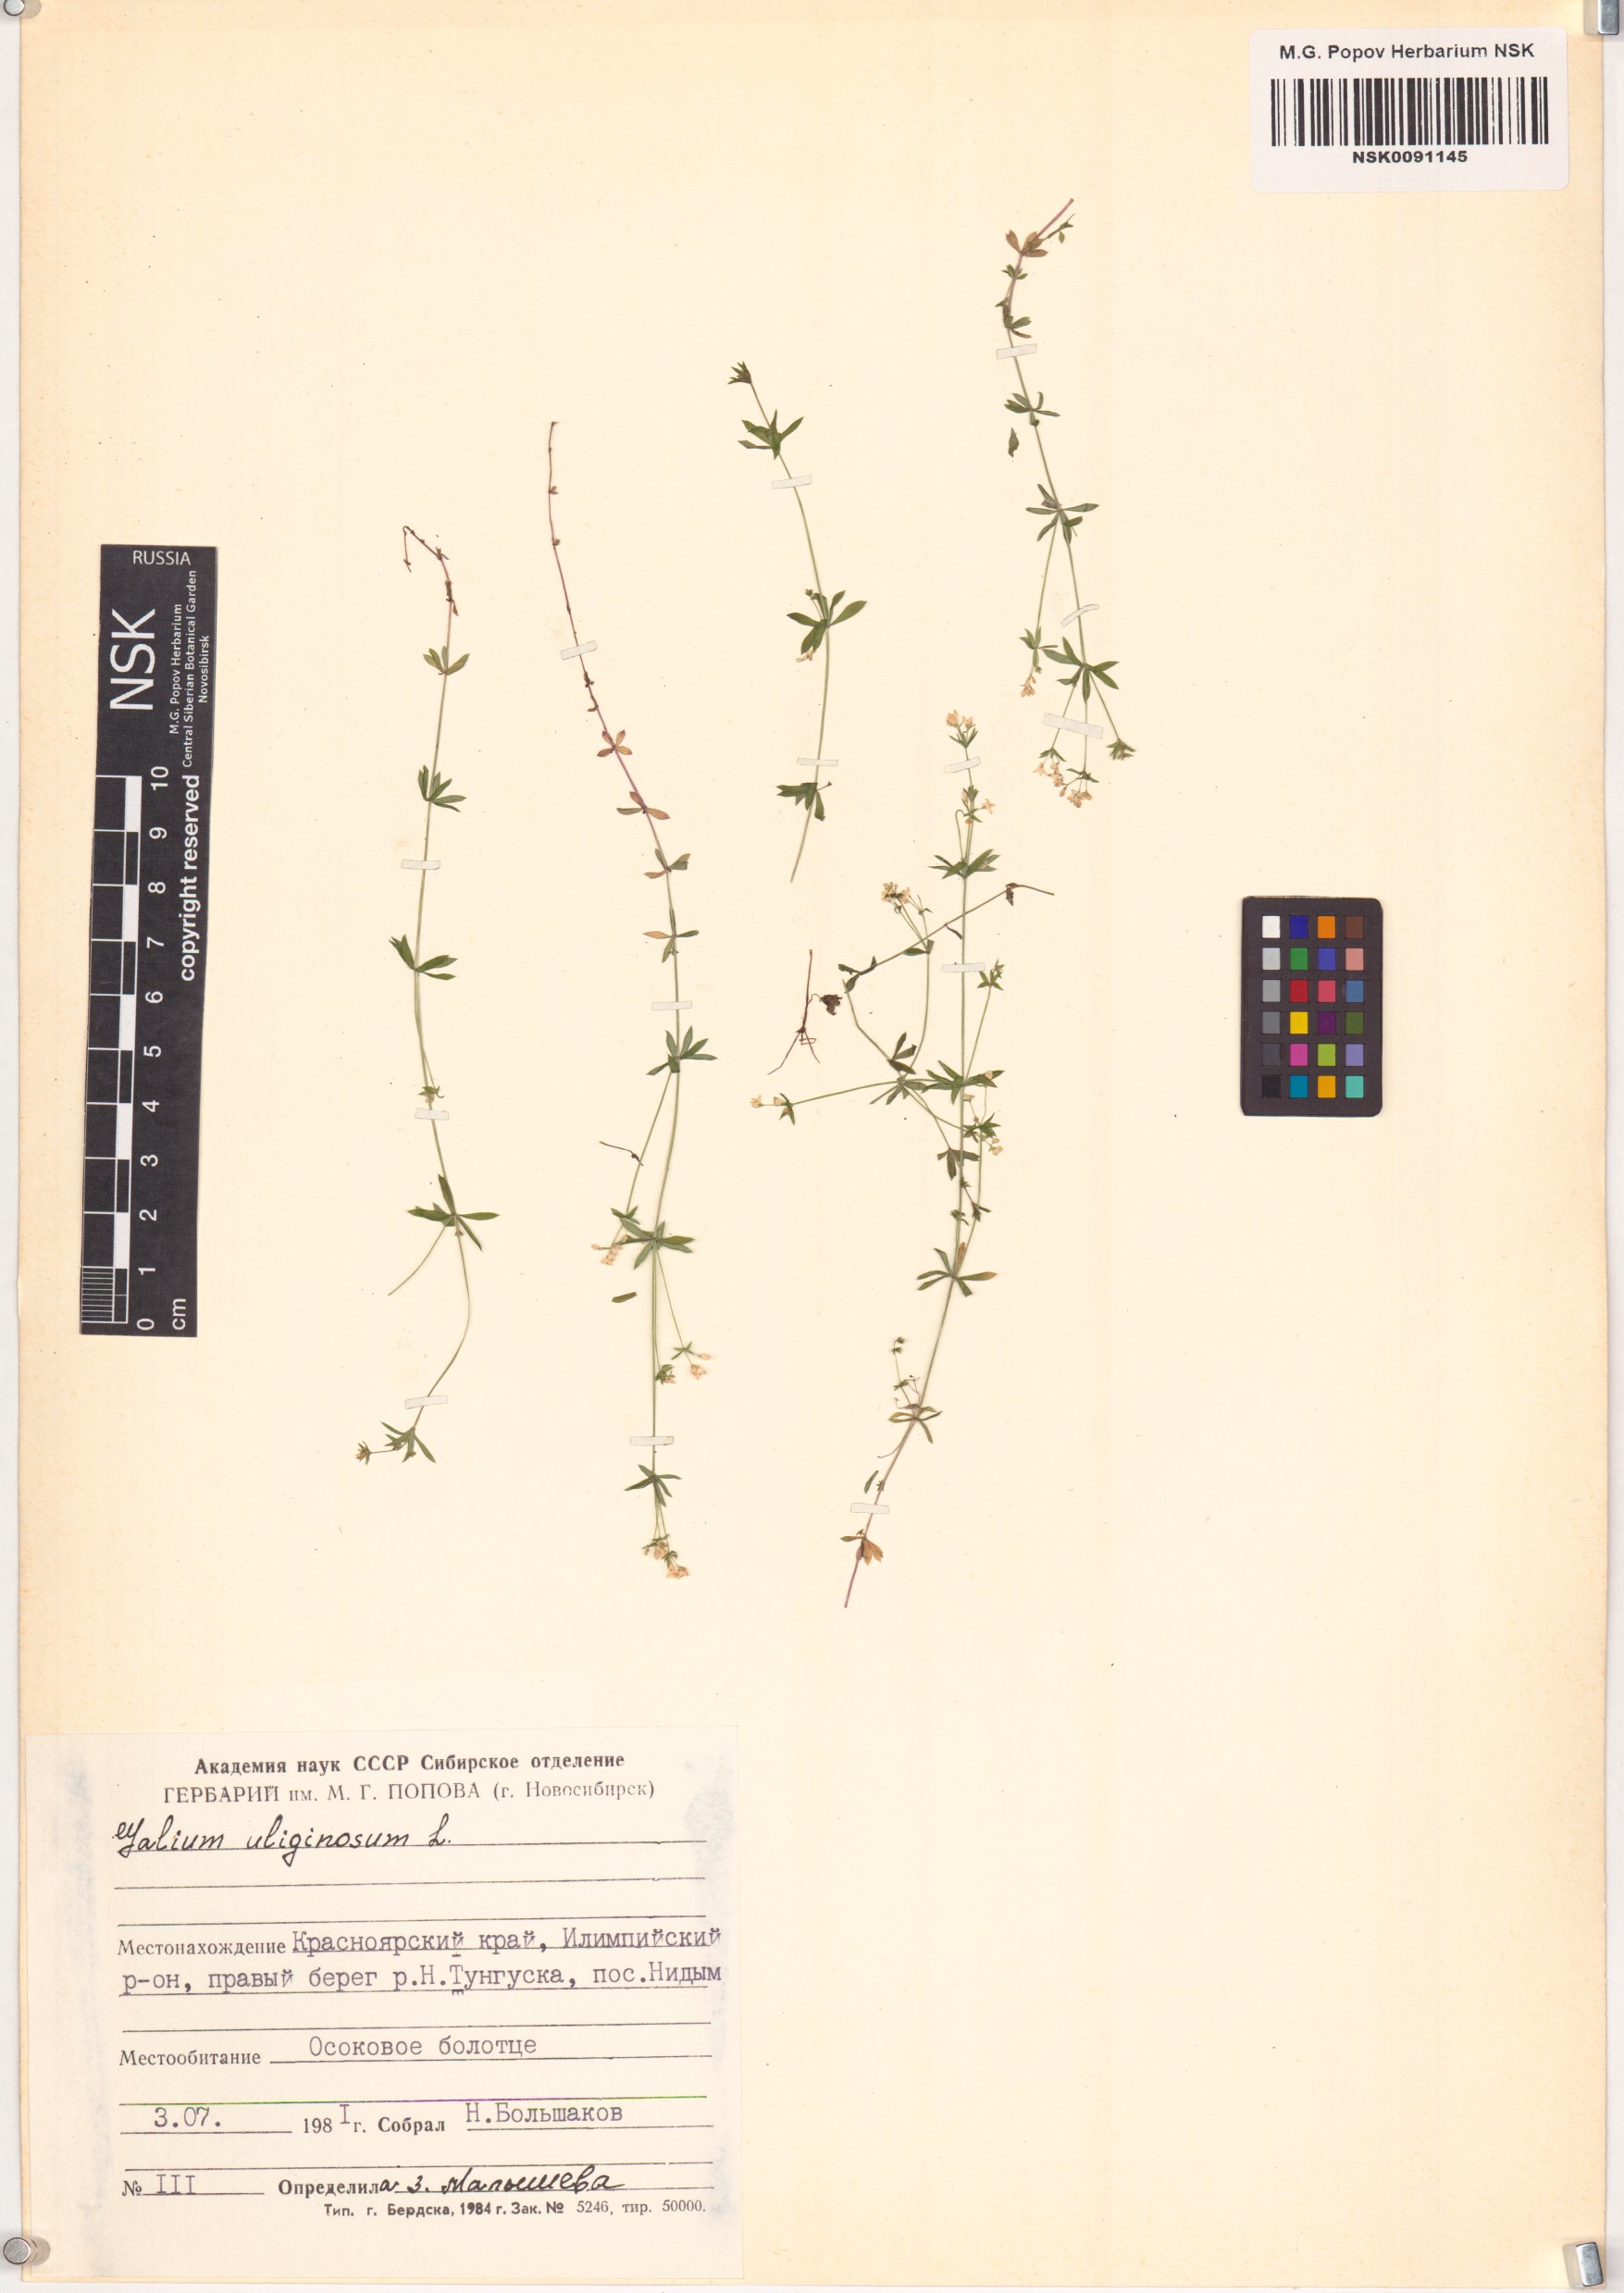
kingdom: Plantae
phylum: Tracheophyta
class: Magnoliopsida
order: Gentianales
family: Rubiaceae
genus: Galium
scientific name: Galium uliginosum
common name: Fen bedstraw
